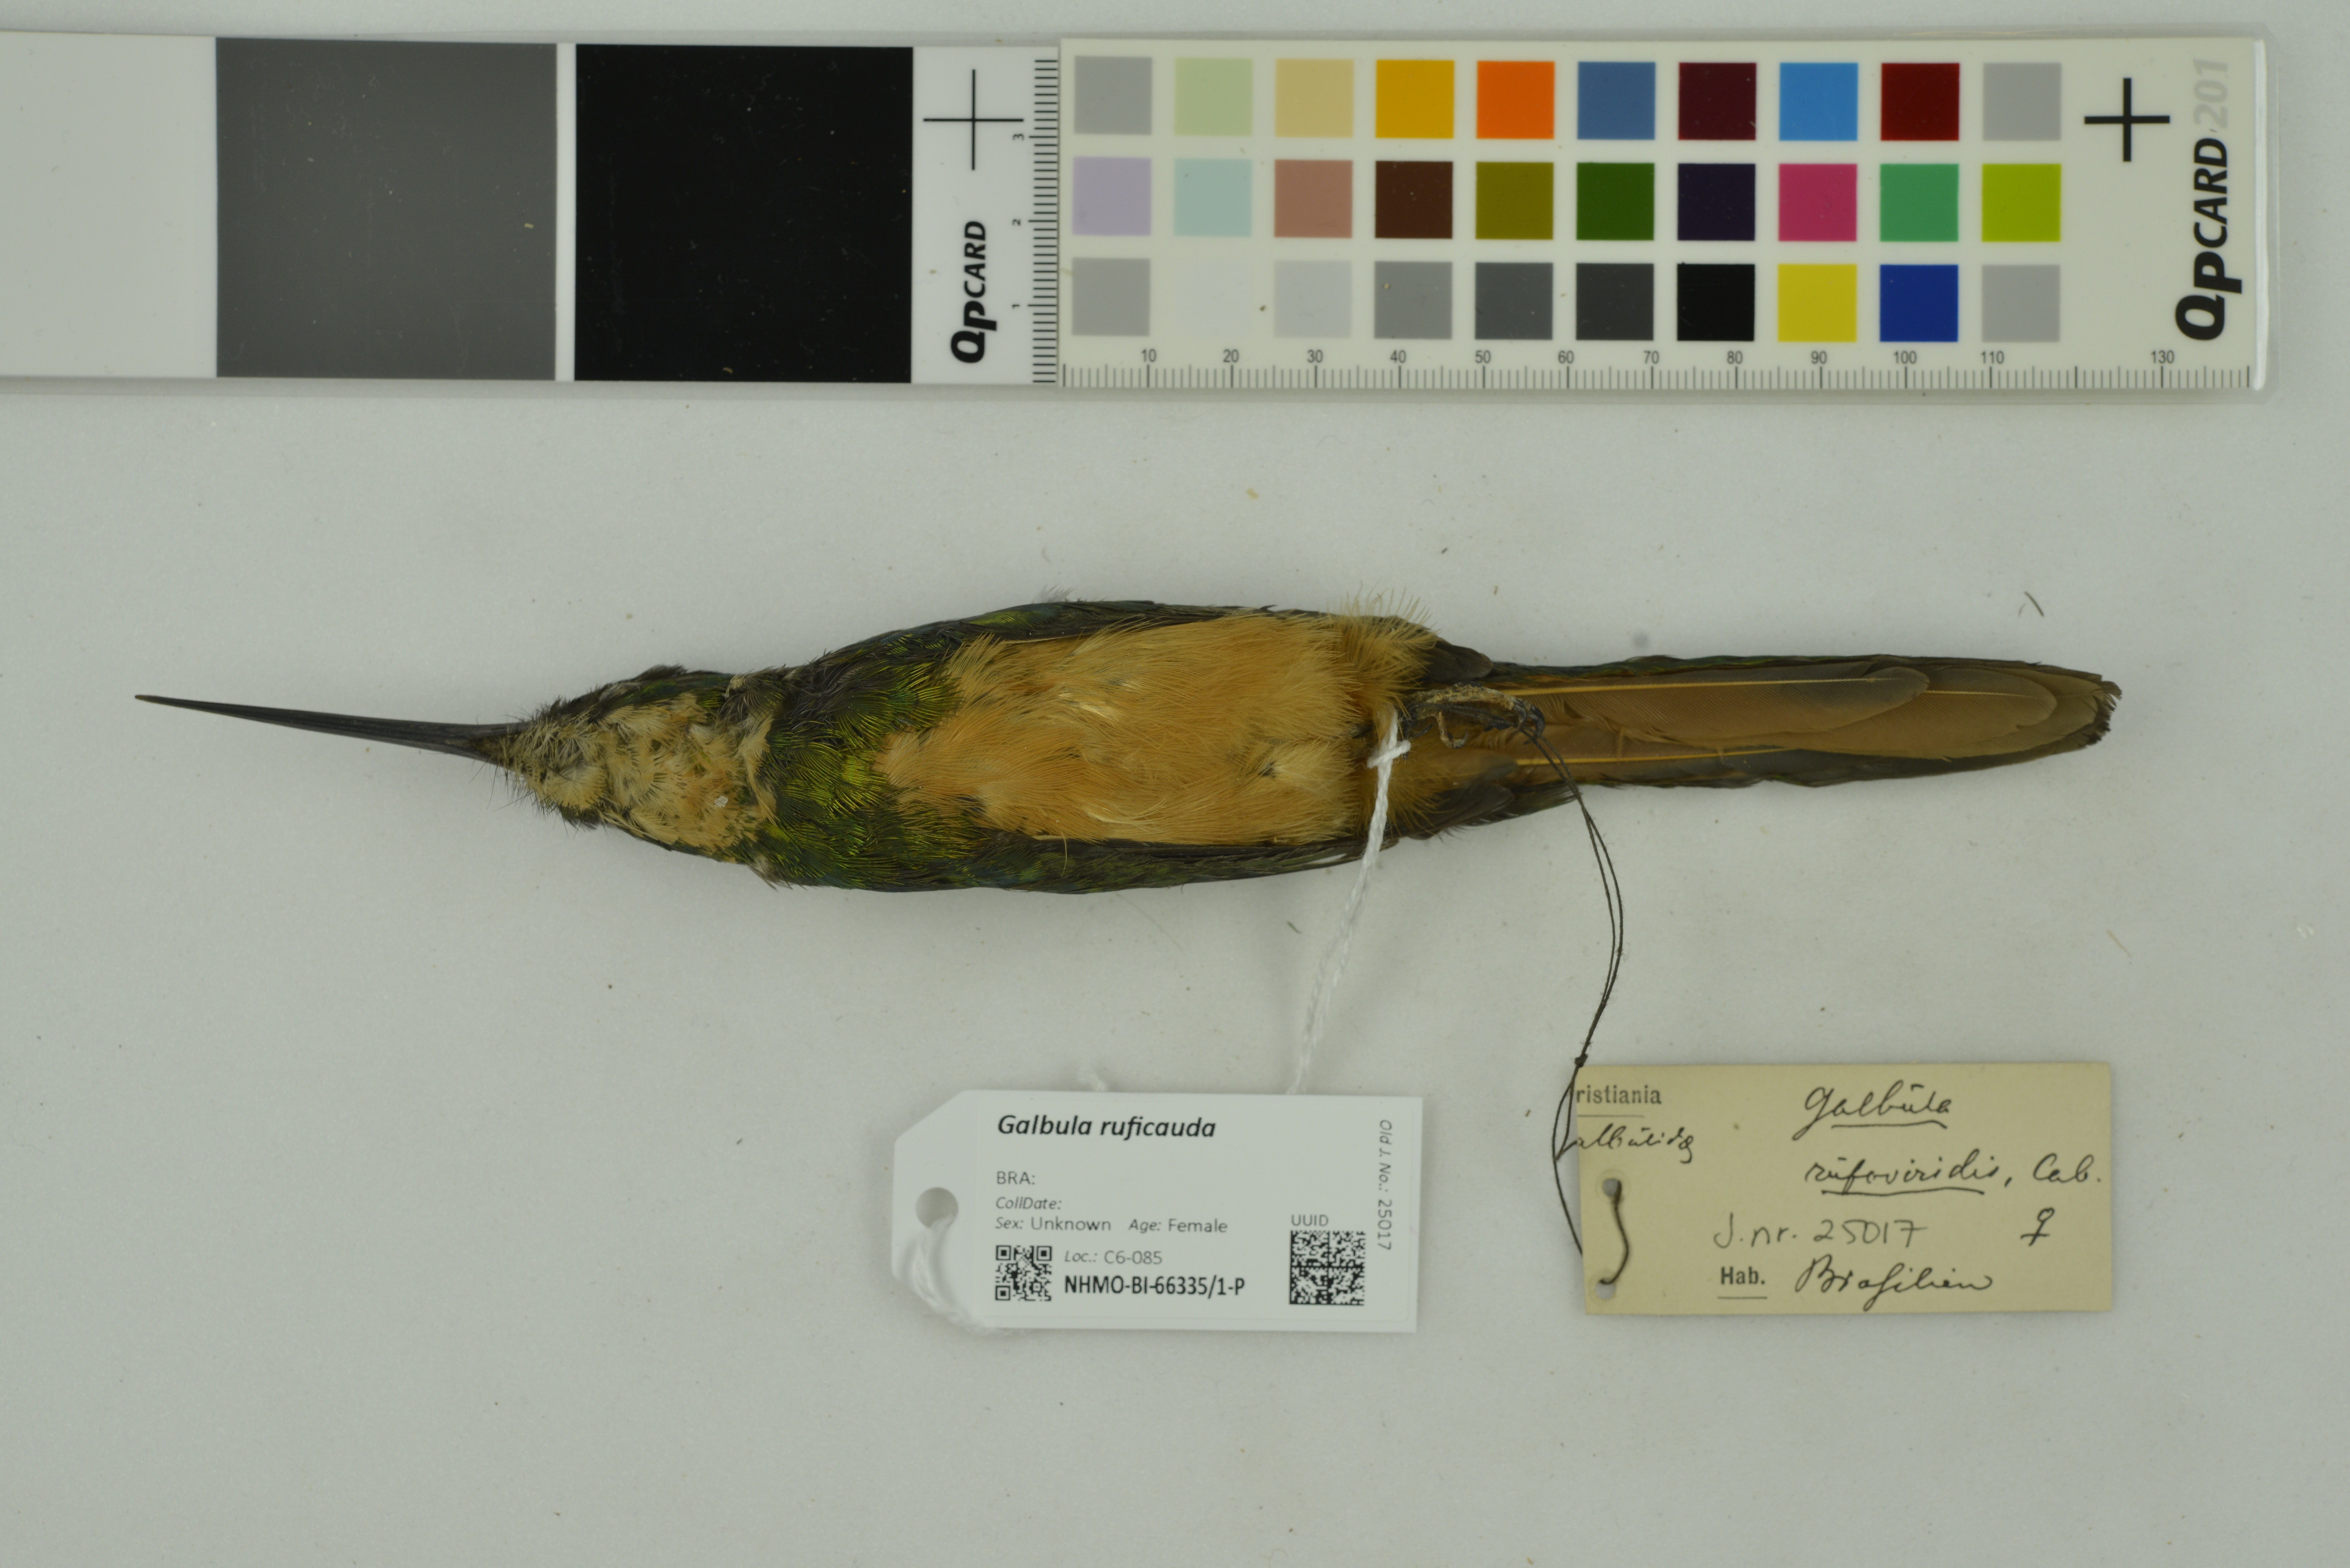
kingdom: Animalia
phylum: Chordata
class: Aves
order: Piciformes
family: Galbulidae
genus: Galbula
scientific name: Galbula ruficauda
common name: Rufous-tailed jacamar
